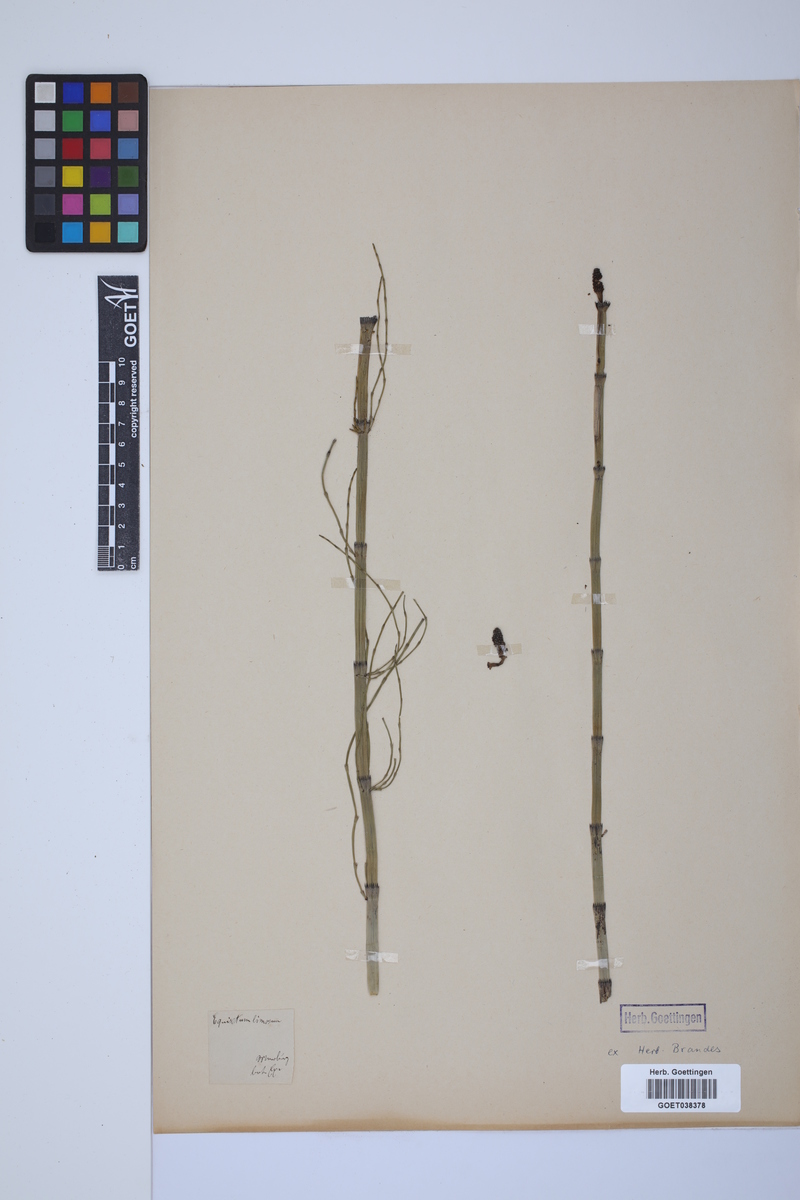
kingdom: Plantae
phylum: Tracheophyta
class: Polypodiopsida
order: Equisetales
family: Equisetaceae
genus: Equisetum
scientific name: Equisetum fluviatile
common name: Water horsetail
